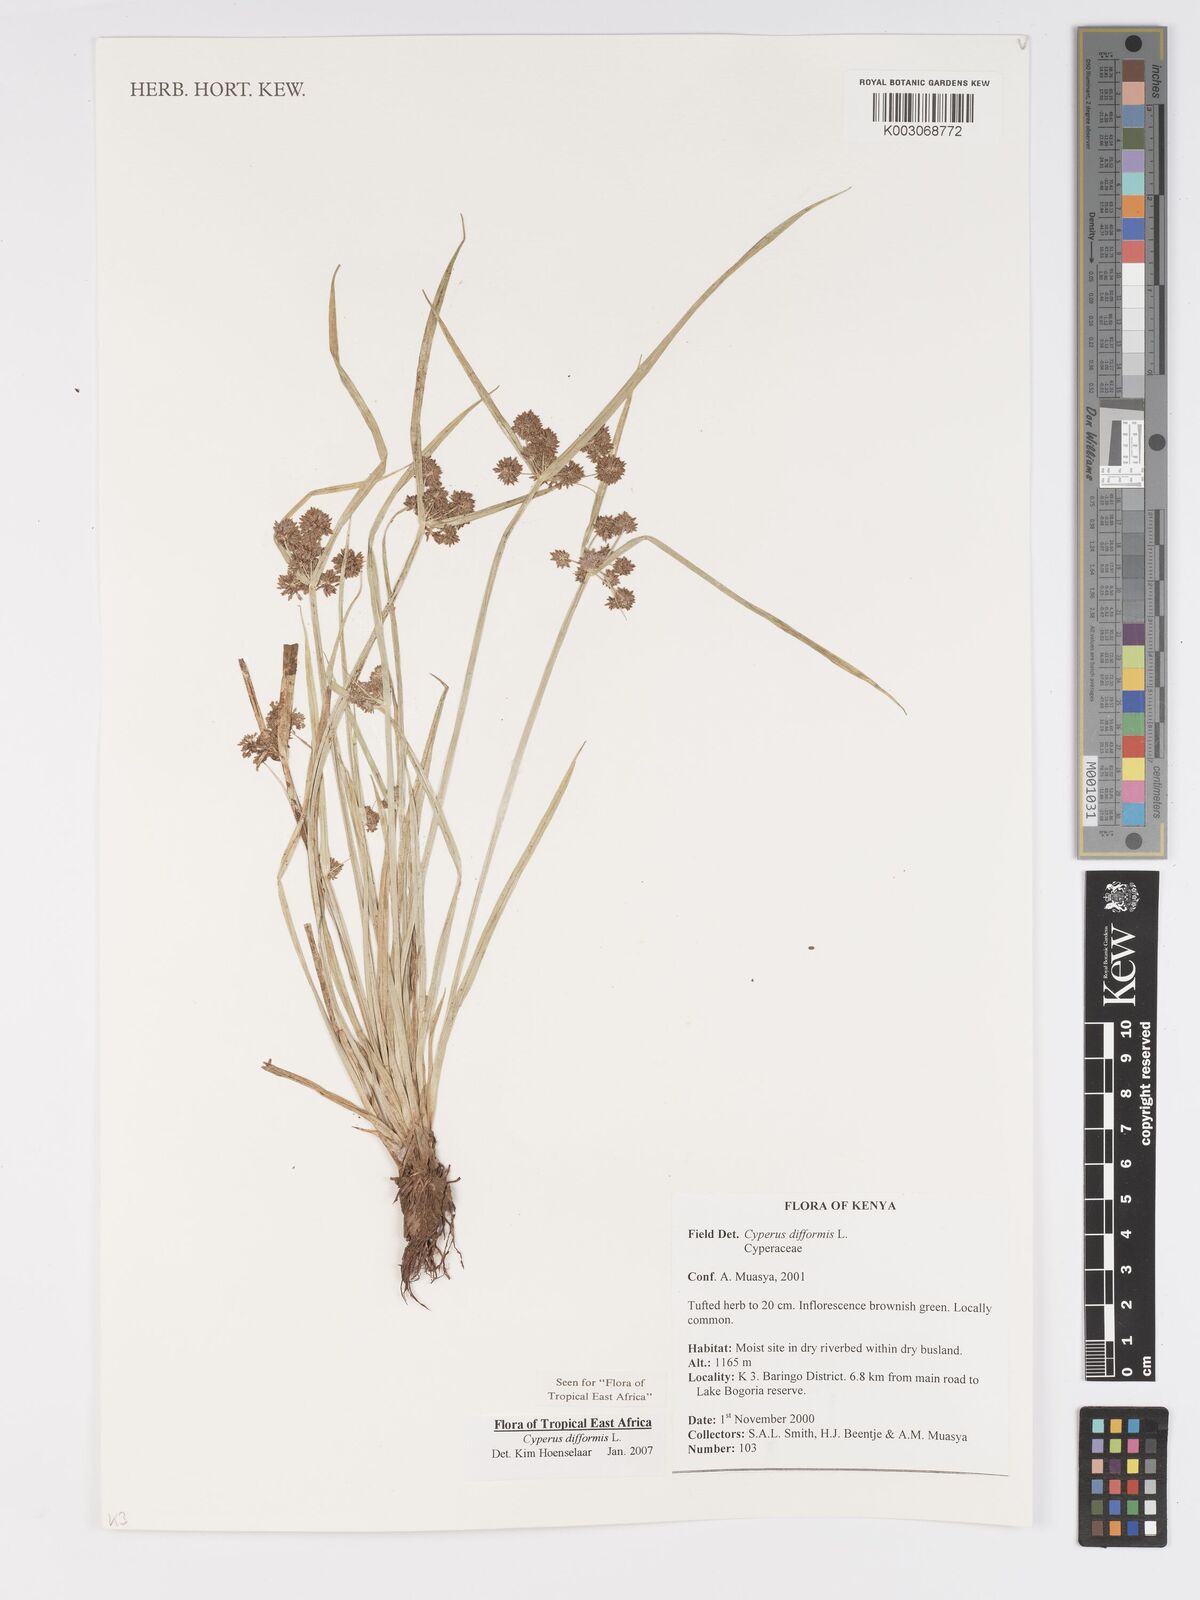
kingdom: Plantae
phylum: Tracheophyta
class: Liliopsida
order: Poales
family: Cyperaceae
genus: Cyperus
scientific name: Cyperus difformis
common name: Variable flatsedge
